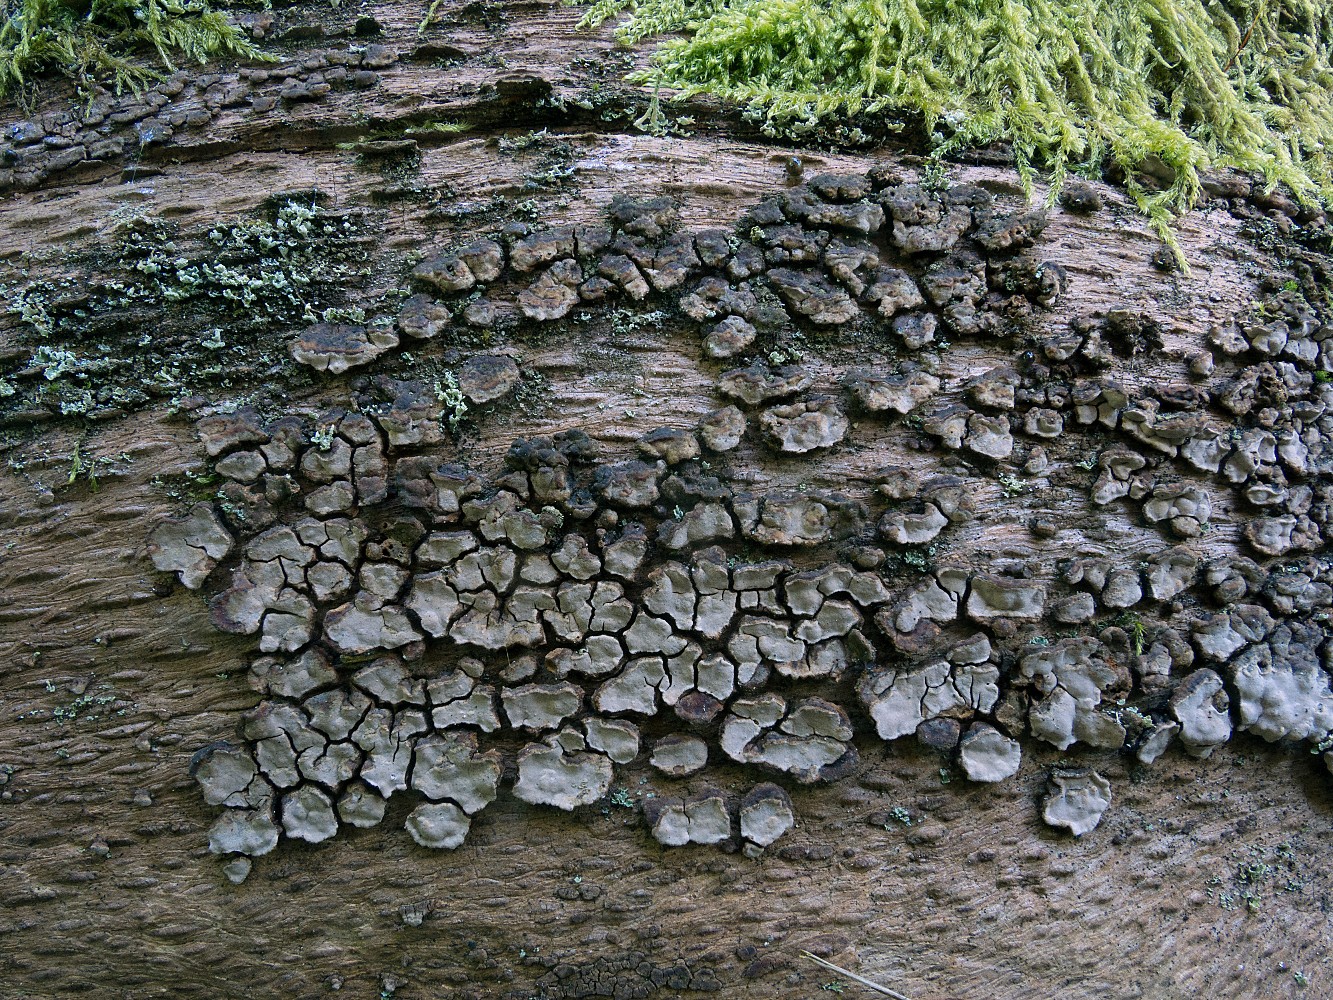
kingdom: Fungi
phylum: Basidiomycota
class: Agaricomycetes
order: Russulales
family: Stereaceae
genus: Xylobolus
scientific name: Xylobolus frustulatus
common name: mønster-lædersvamp
